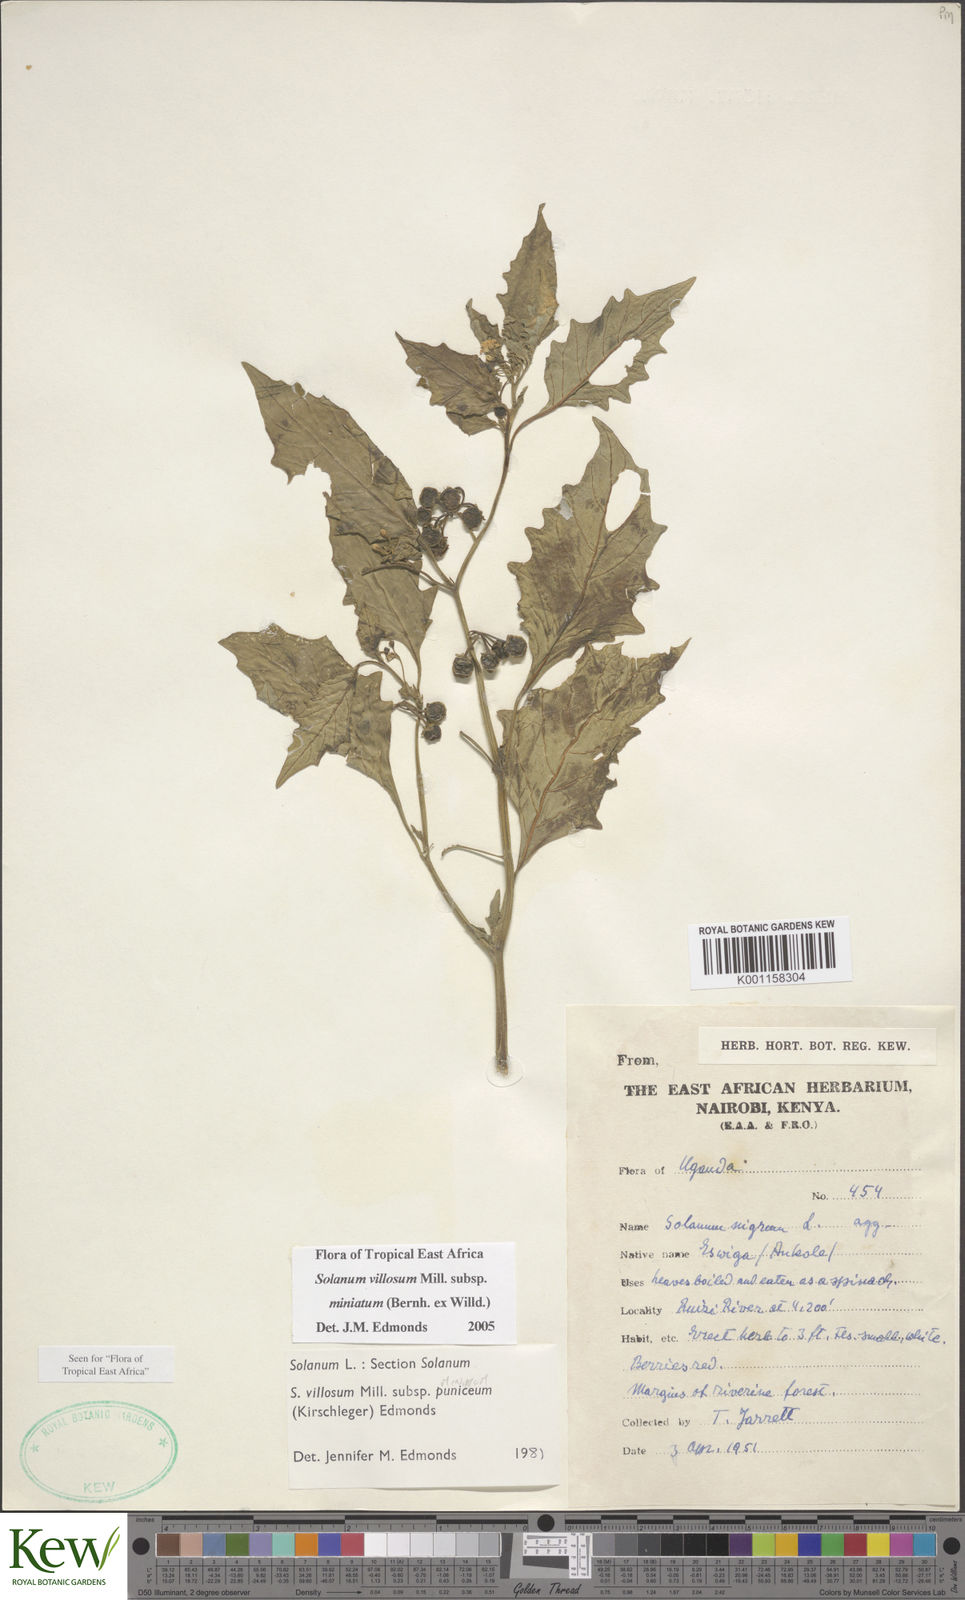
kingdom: Plantae
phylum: Tracheophyta
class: Magnoliopsida
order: Solanales
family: Solanaceae
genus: Solanum
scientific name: Solanum villosum
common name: Red nightshade
